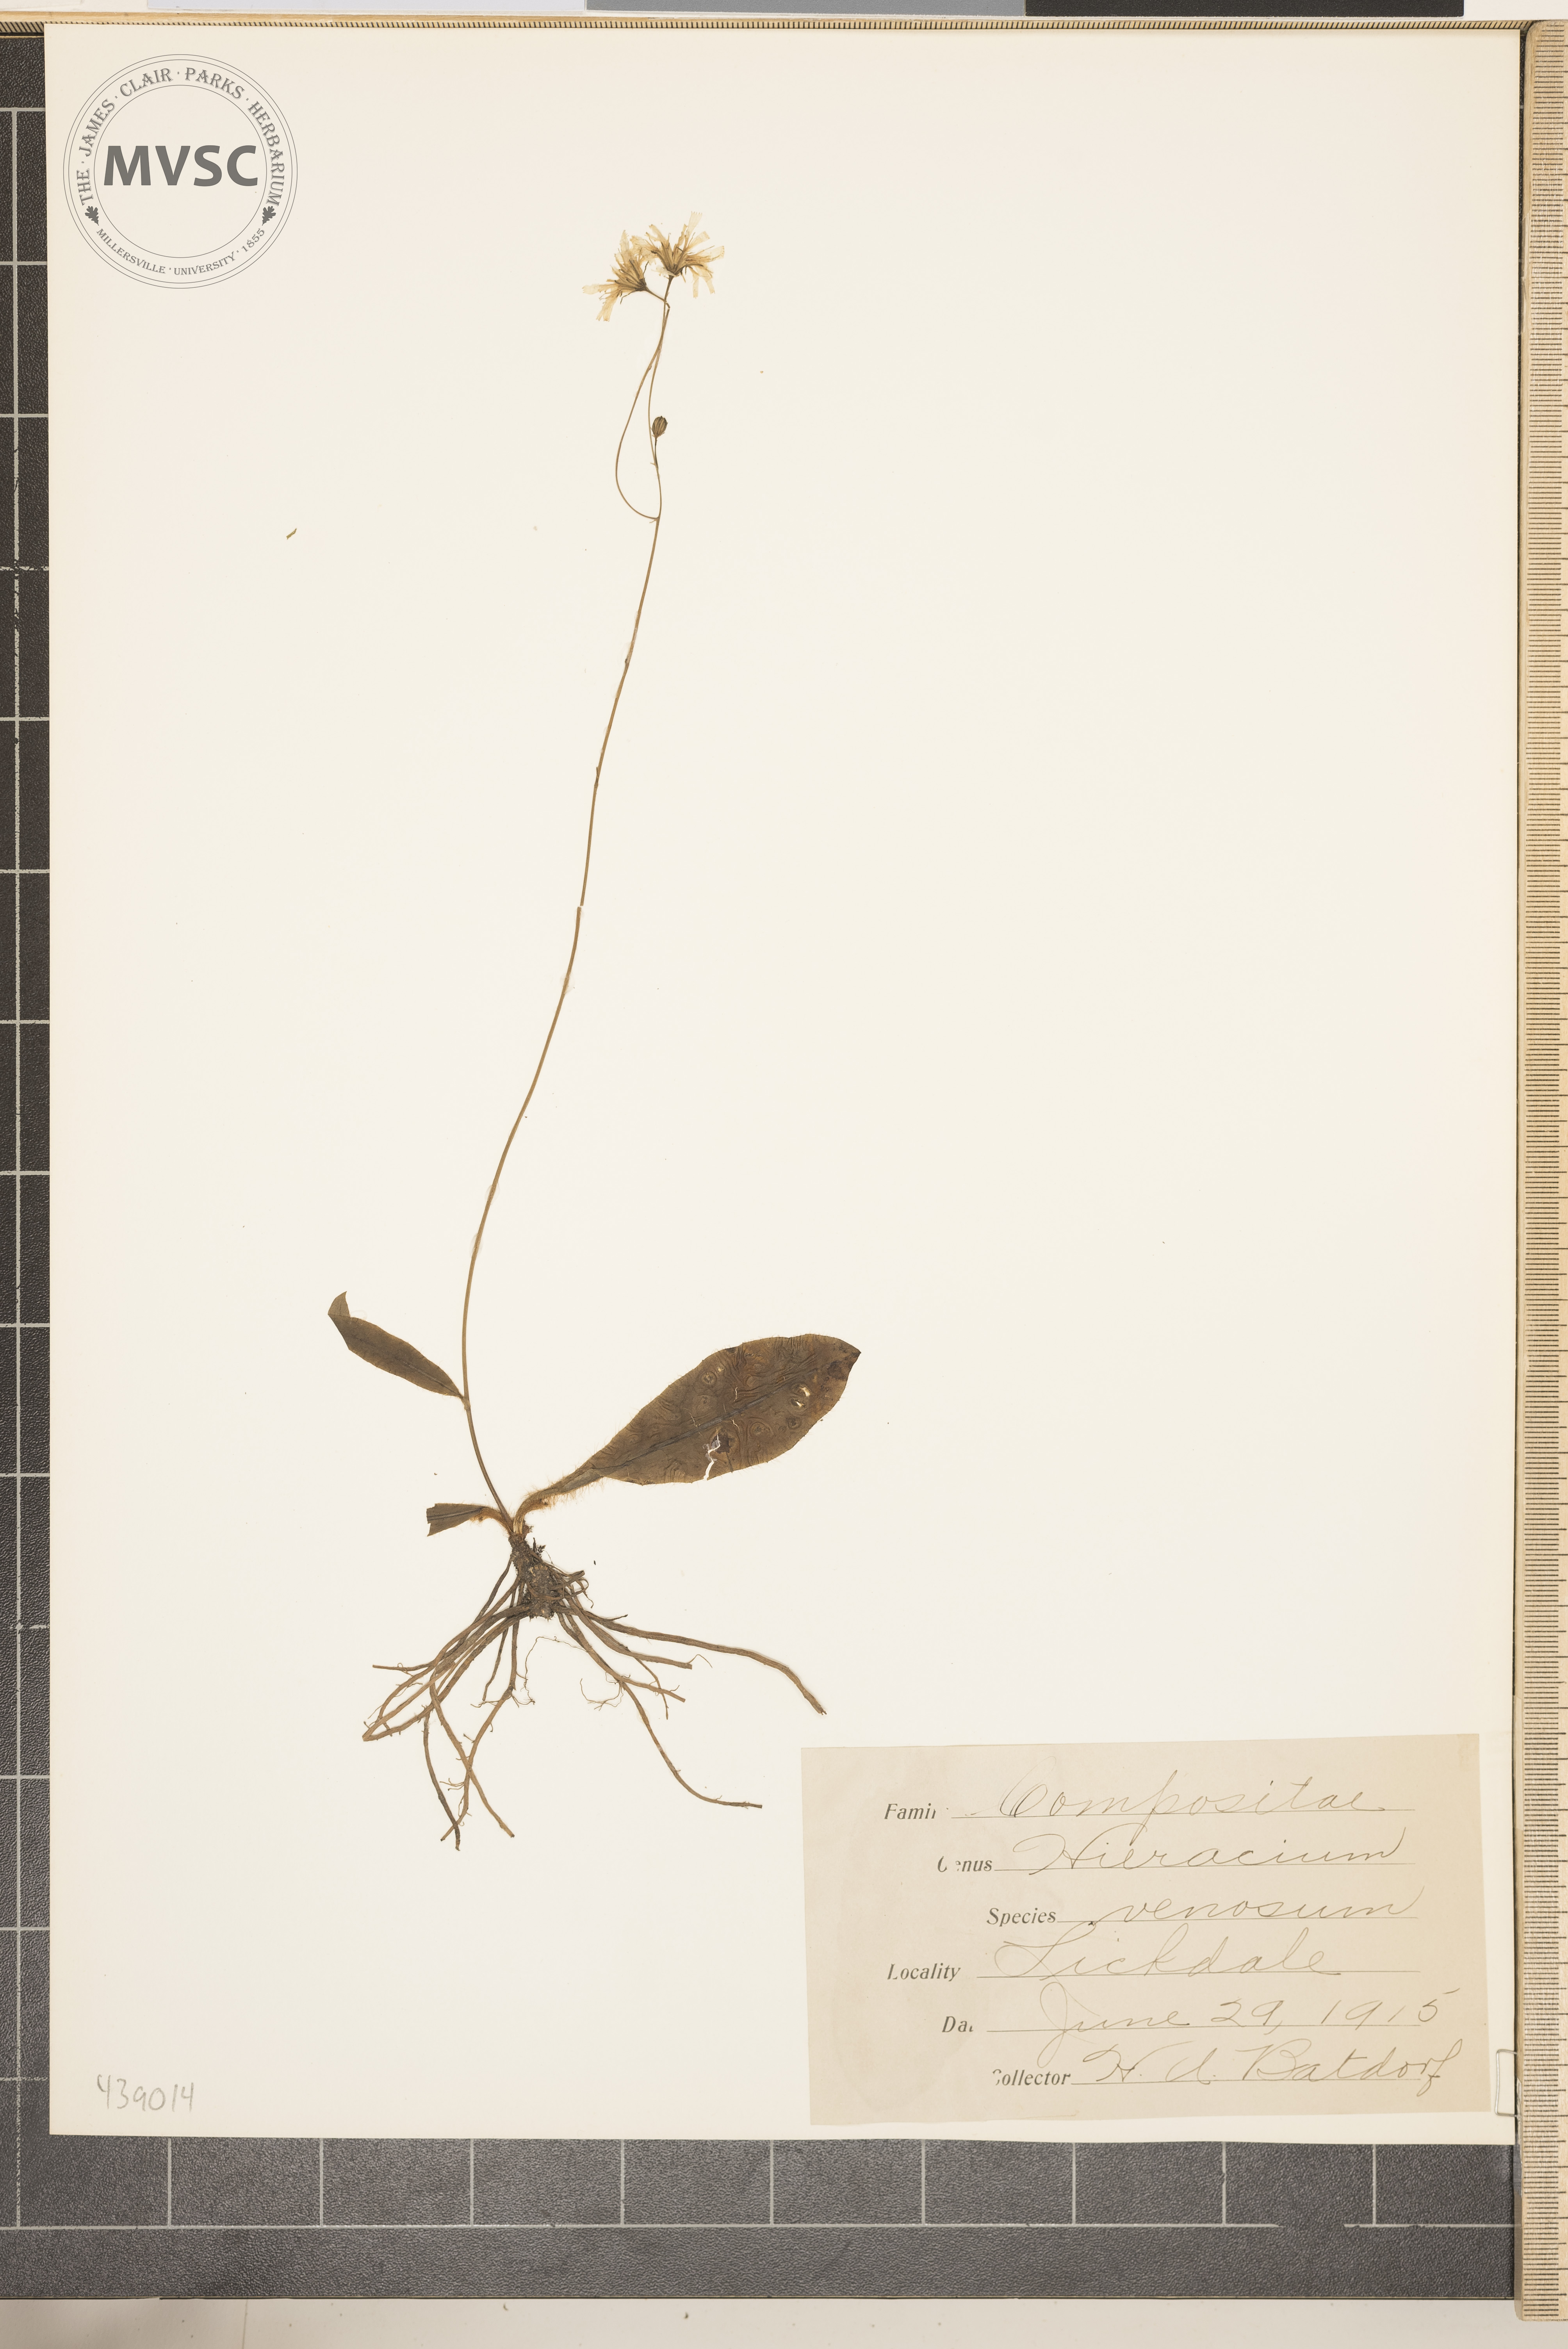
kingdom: Plantae
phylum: Tracheophyta
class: Magnoliopsida
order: Asterales
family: Asteraceae
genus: Hieracium
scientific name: Hieracium venosum
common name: Rattlesnake hawkweed
